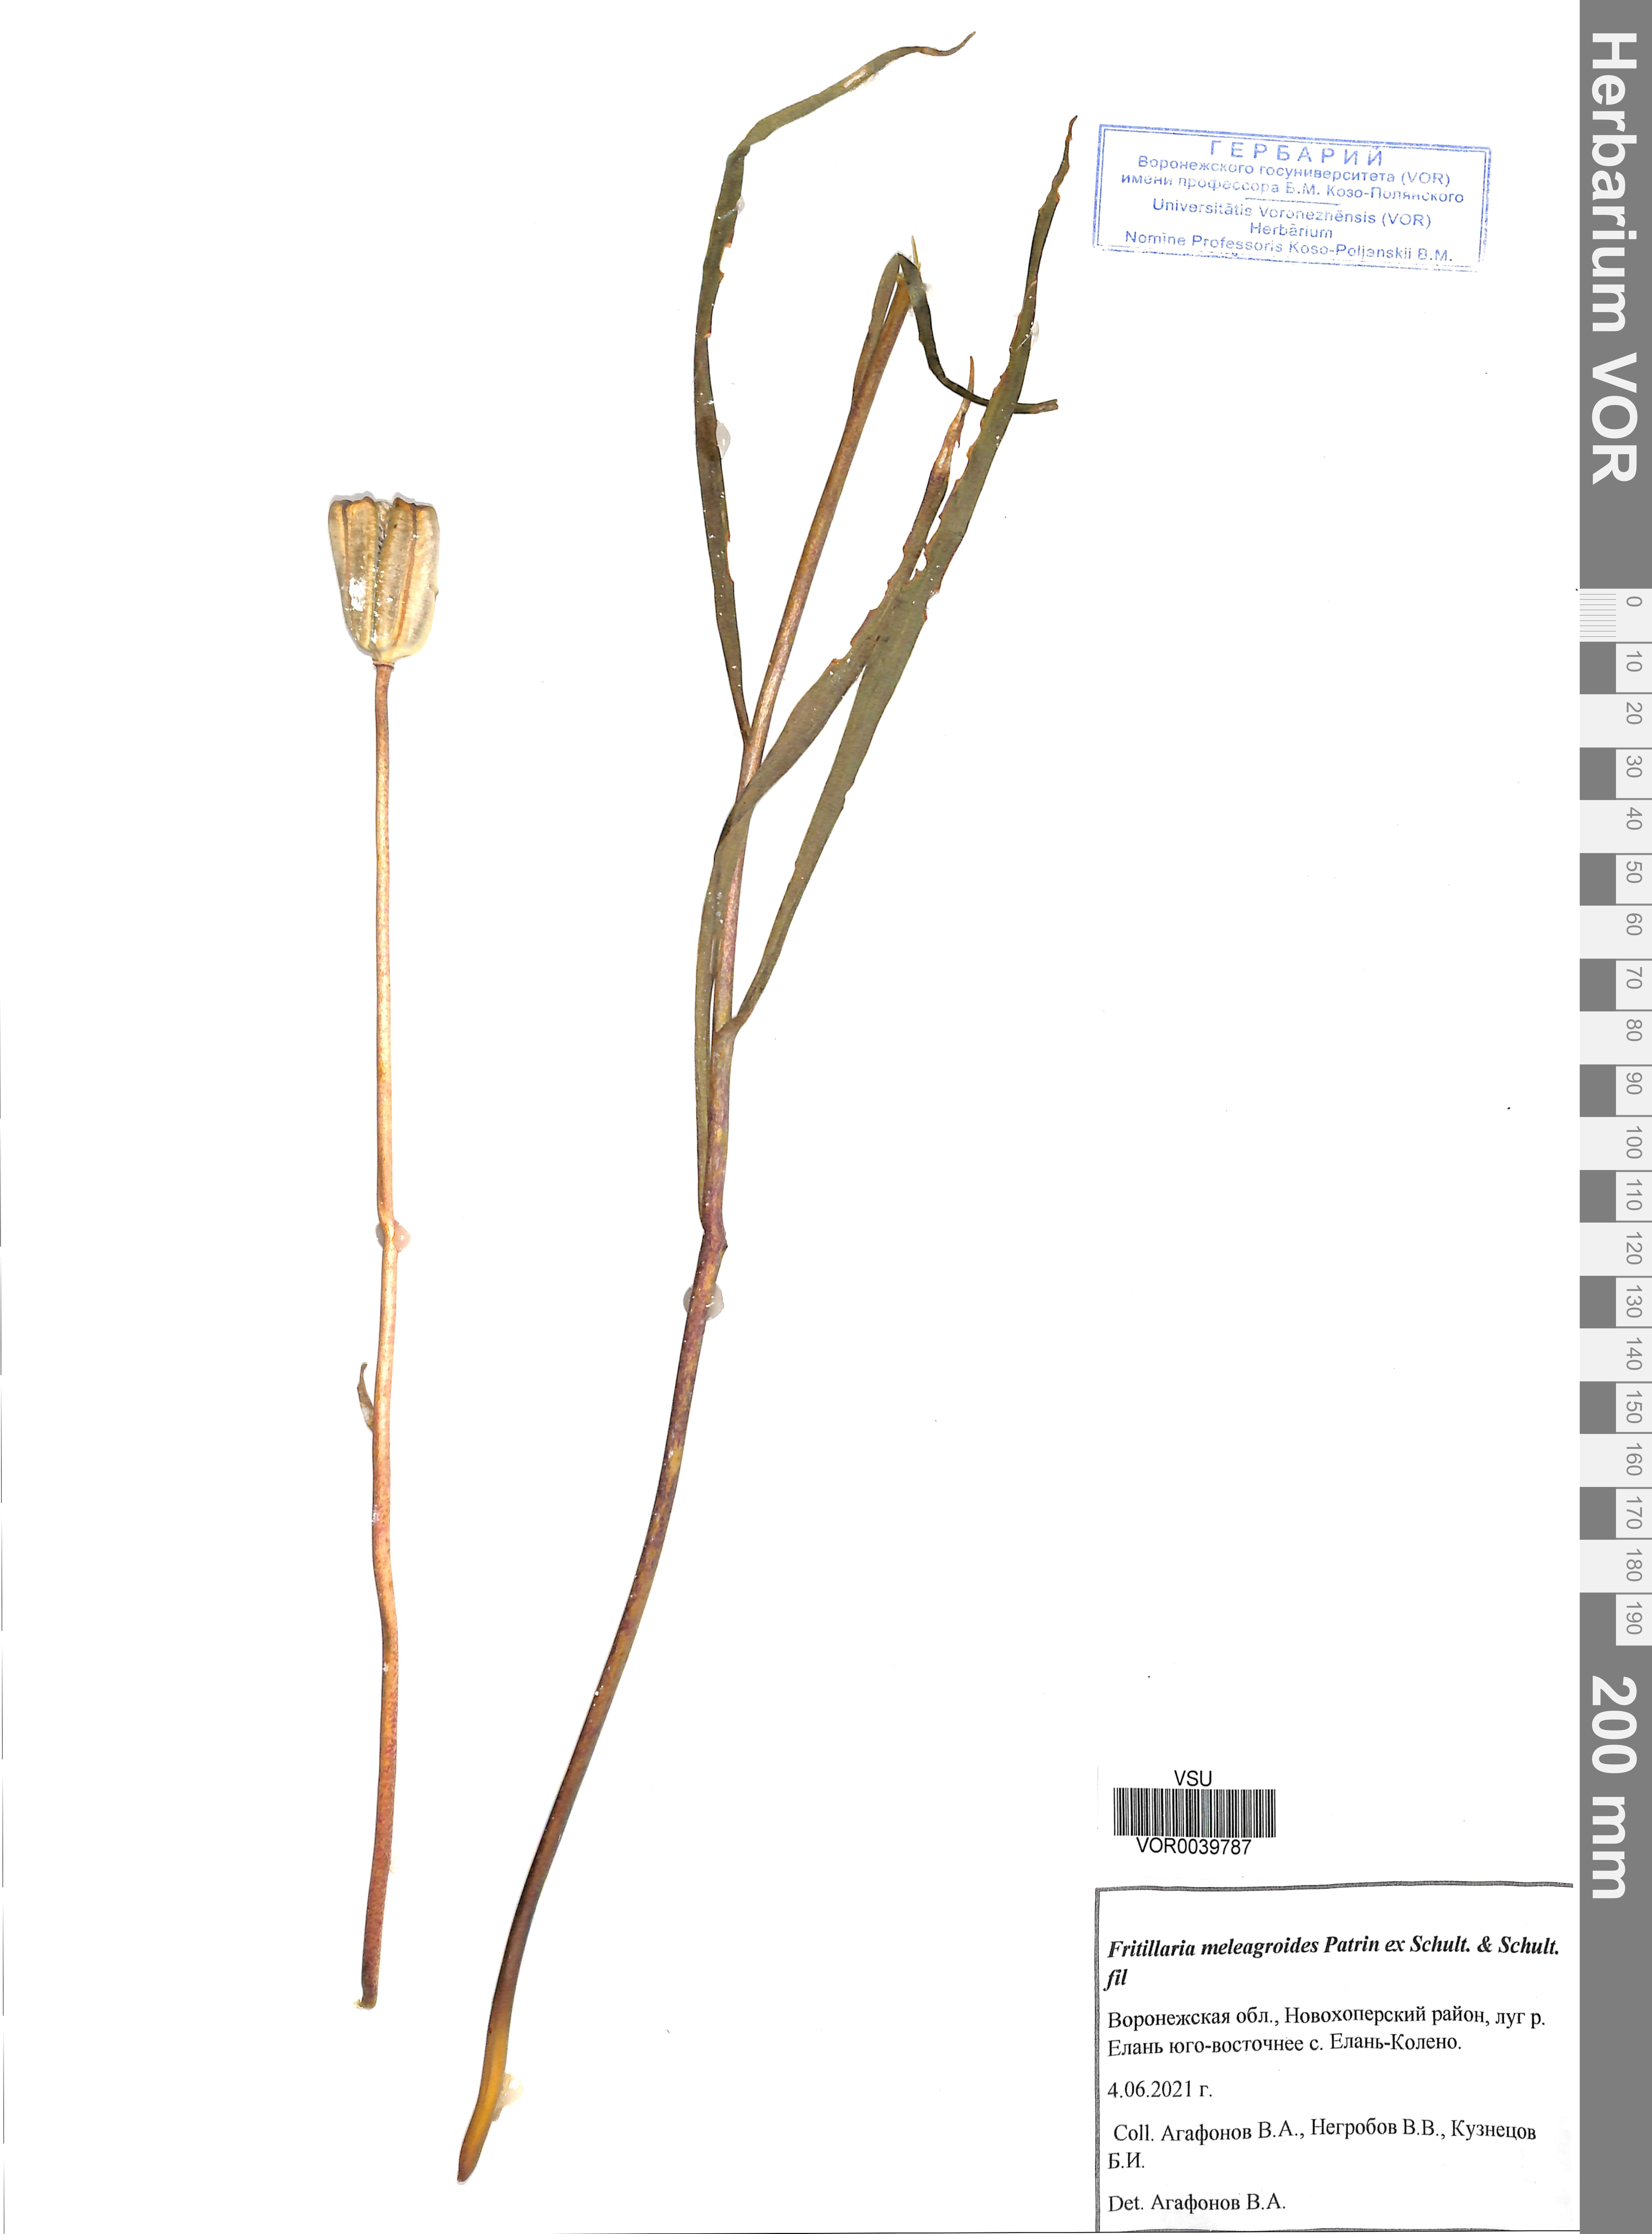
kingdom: Plantae
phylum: Tracheophyta
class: Liliopsida
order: Liliales
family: Liliaceae
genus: Fritillaria
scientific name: Fritillaria meleagroides
